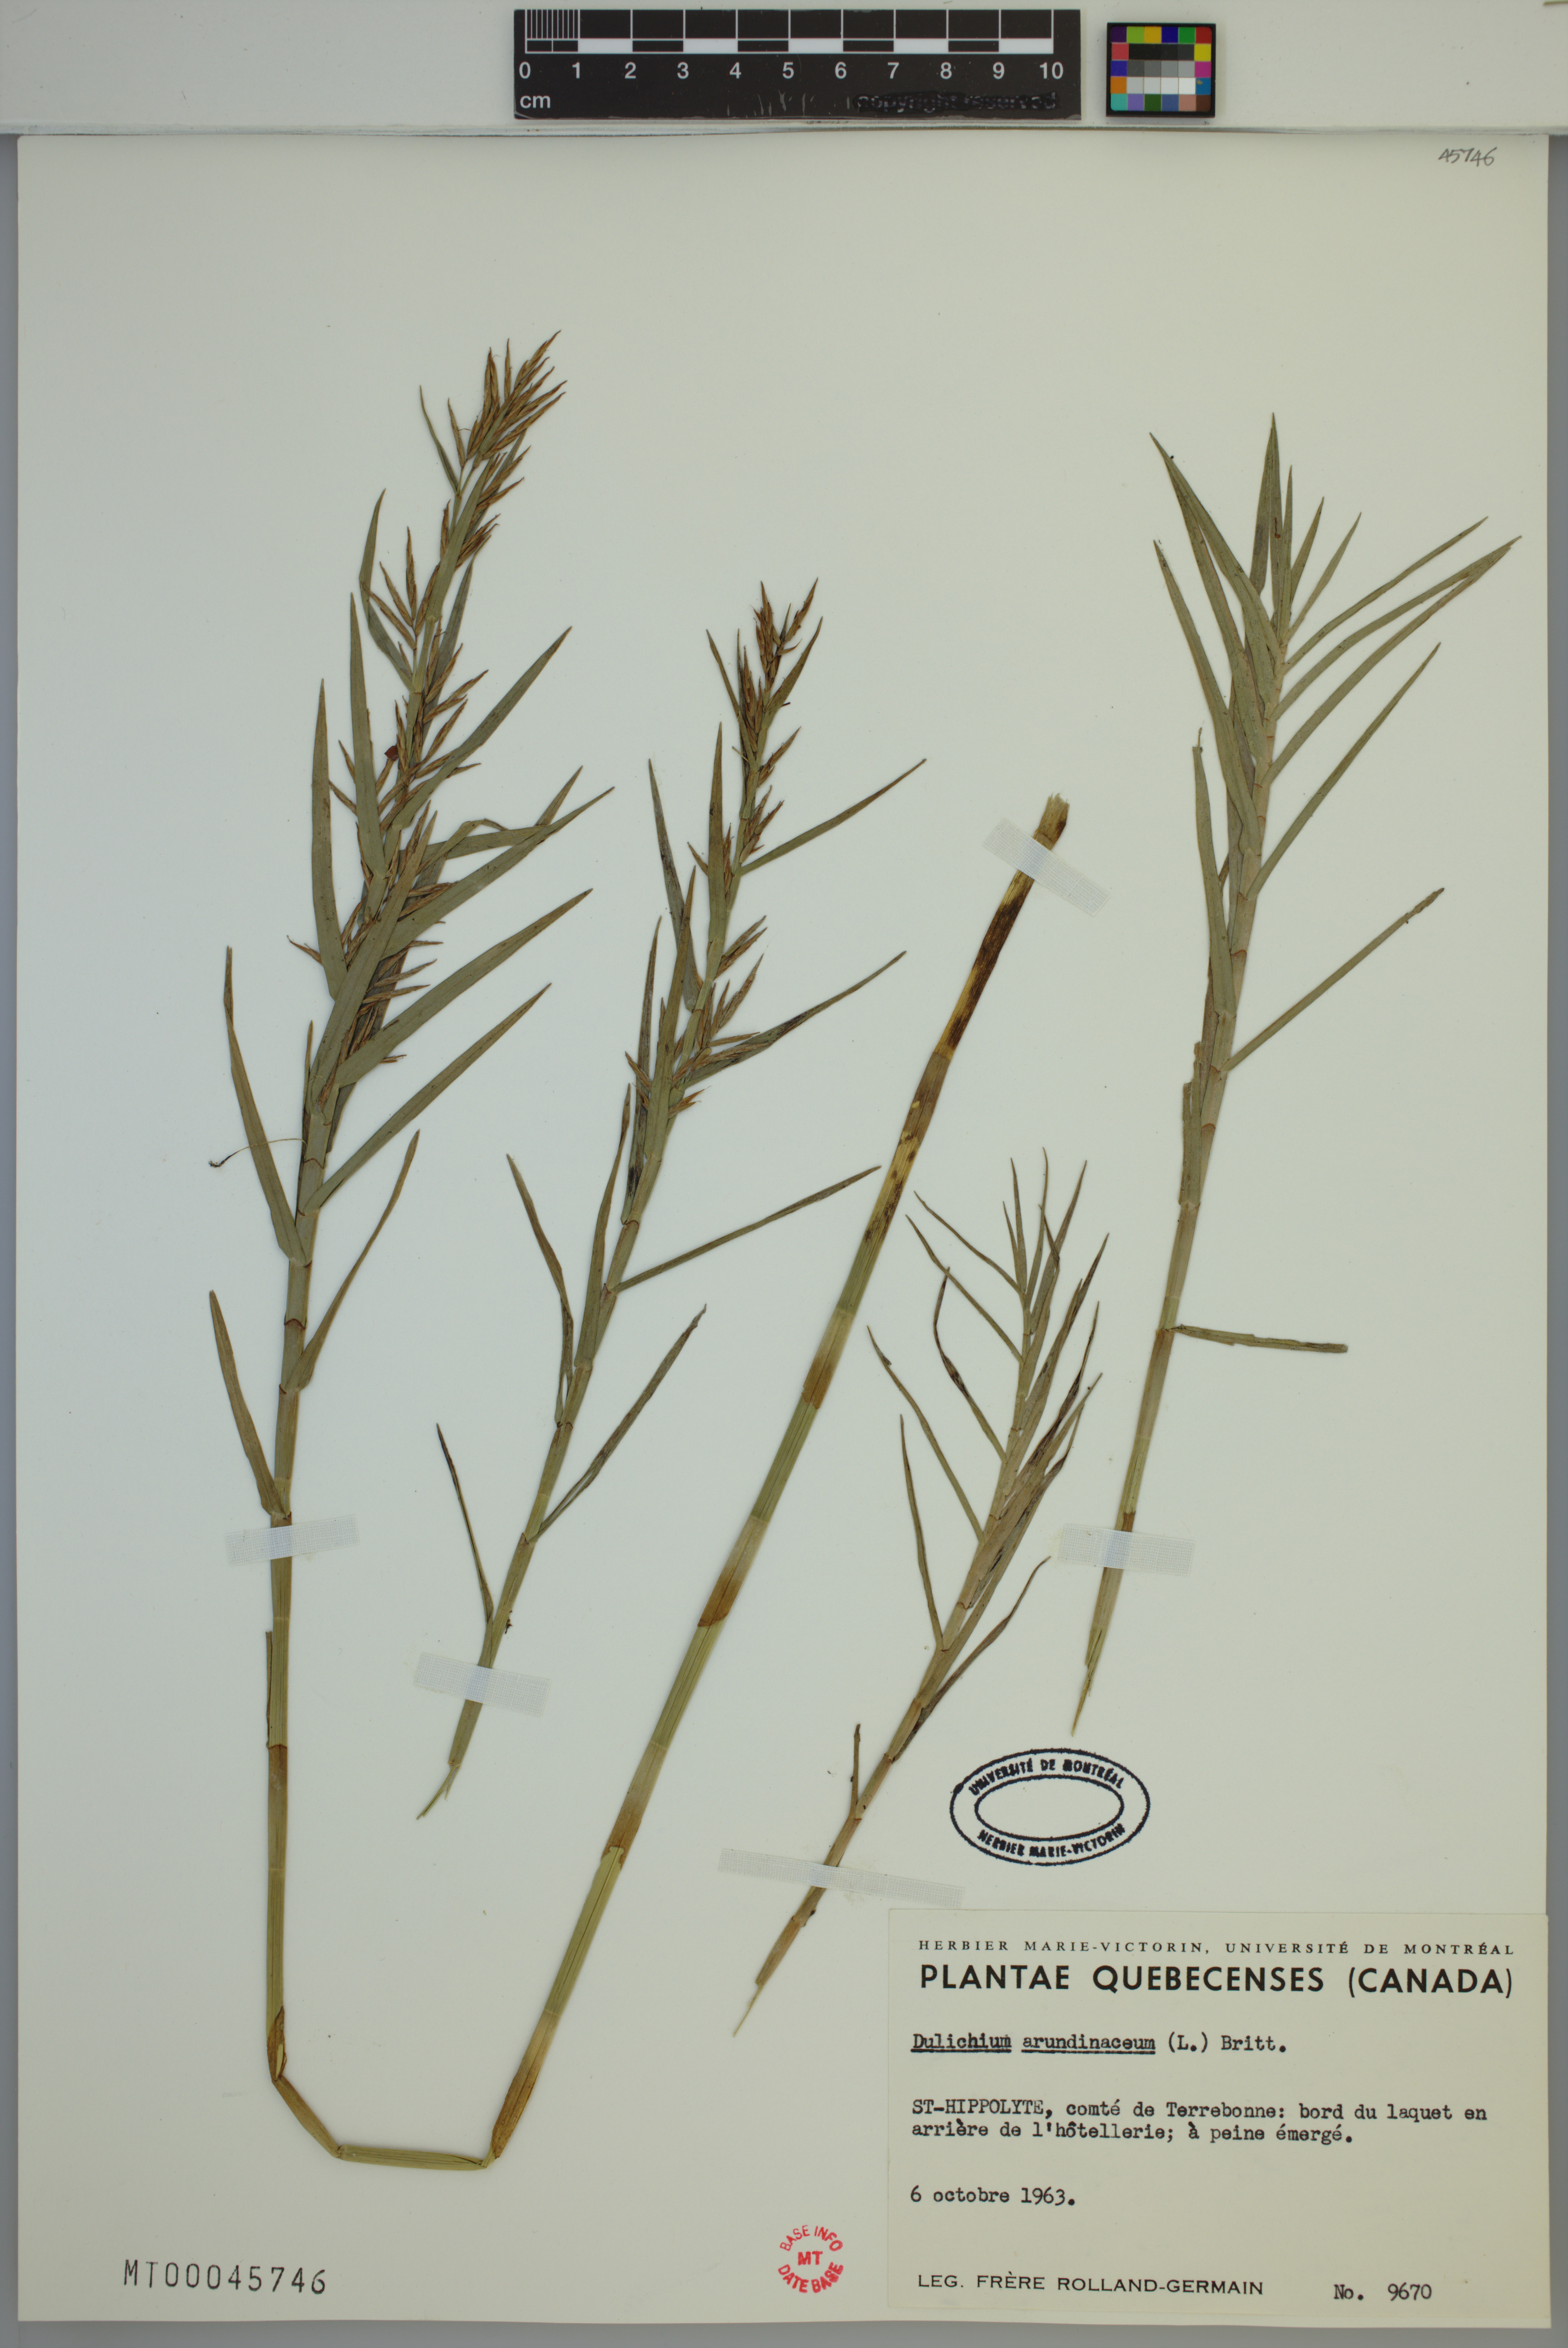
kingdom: Plantae
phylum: Tracheophyta
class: Liliopsida
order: Poales
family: Cyperaceae
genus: Dulichium
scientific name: Dulichium arundinaceum
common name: Three-way sedge
